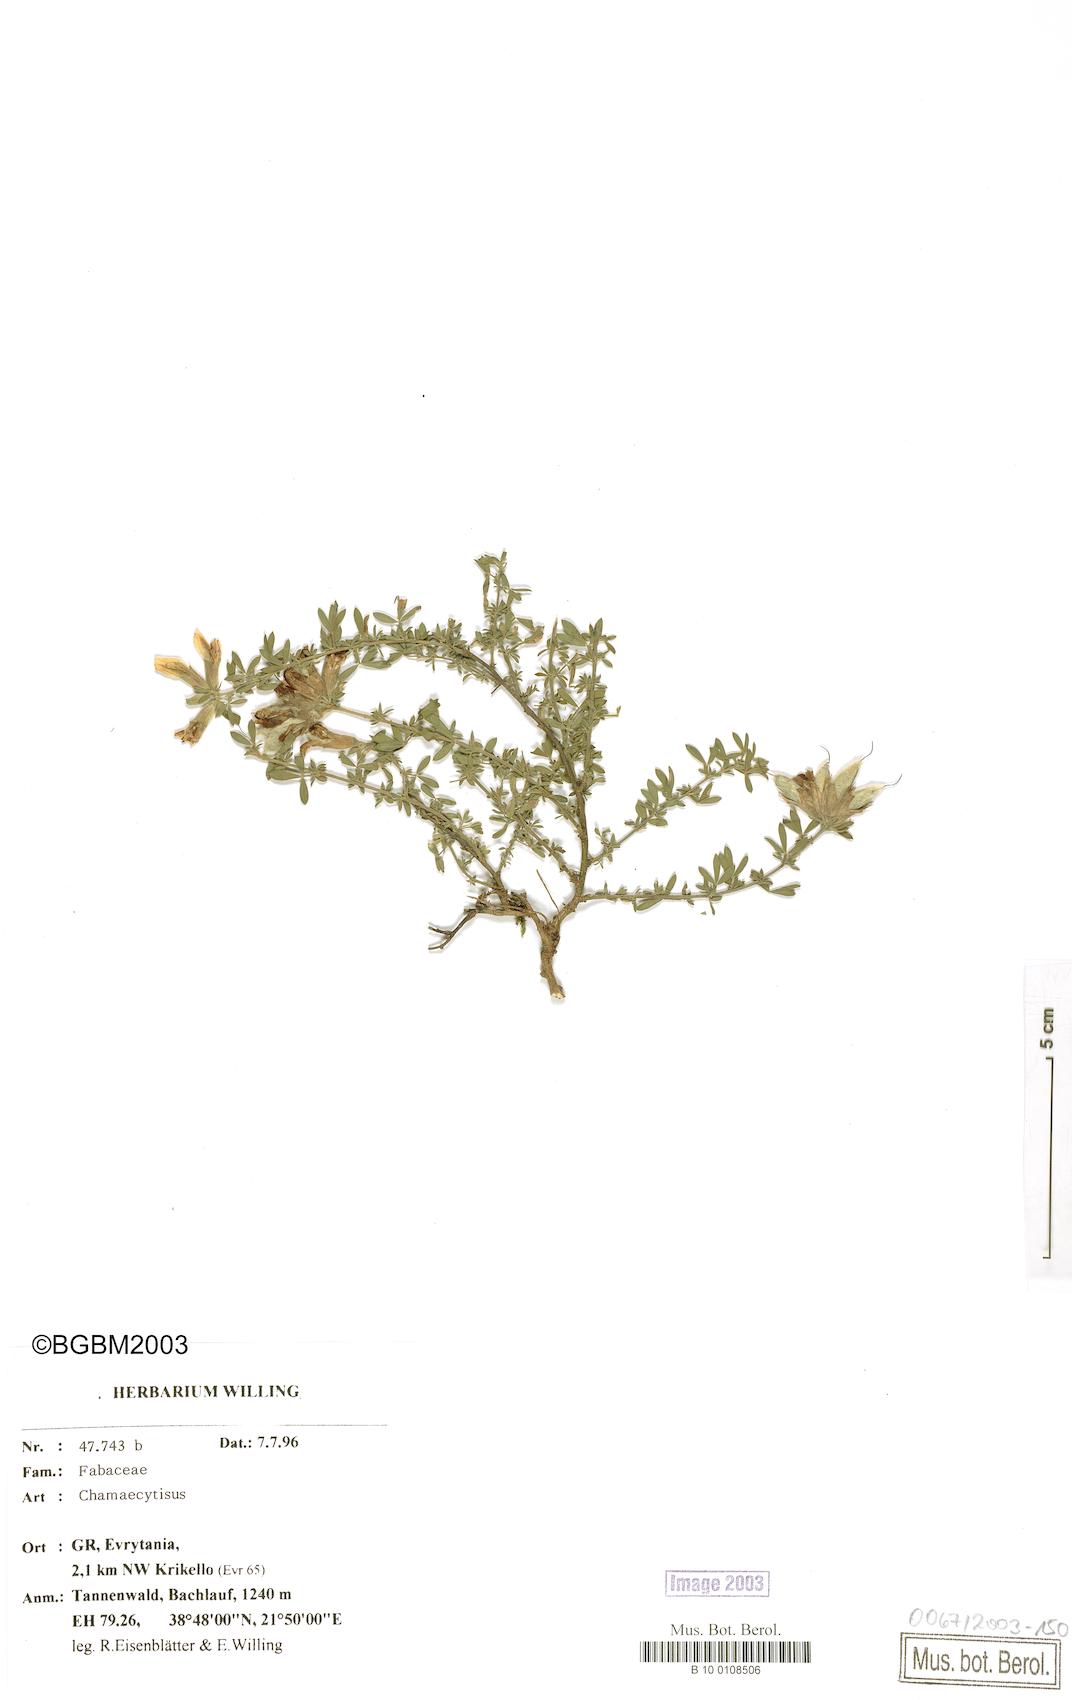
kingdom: Plantae
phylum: Tracheophyta
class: Magnoliopsida
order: Fabales
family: Fabaceae
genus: Chamaecytisus
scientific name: Chamaecytisus
